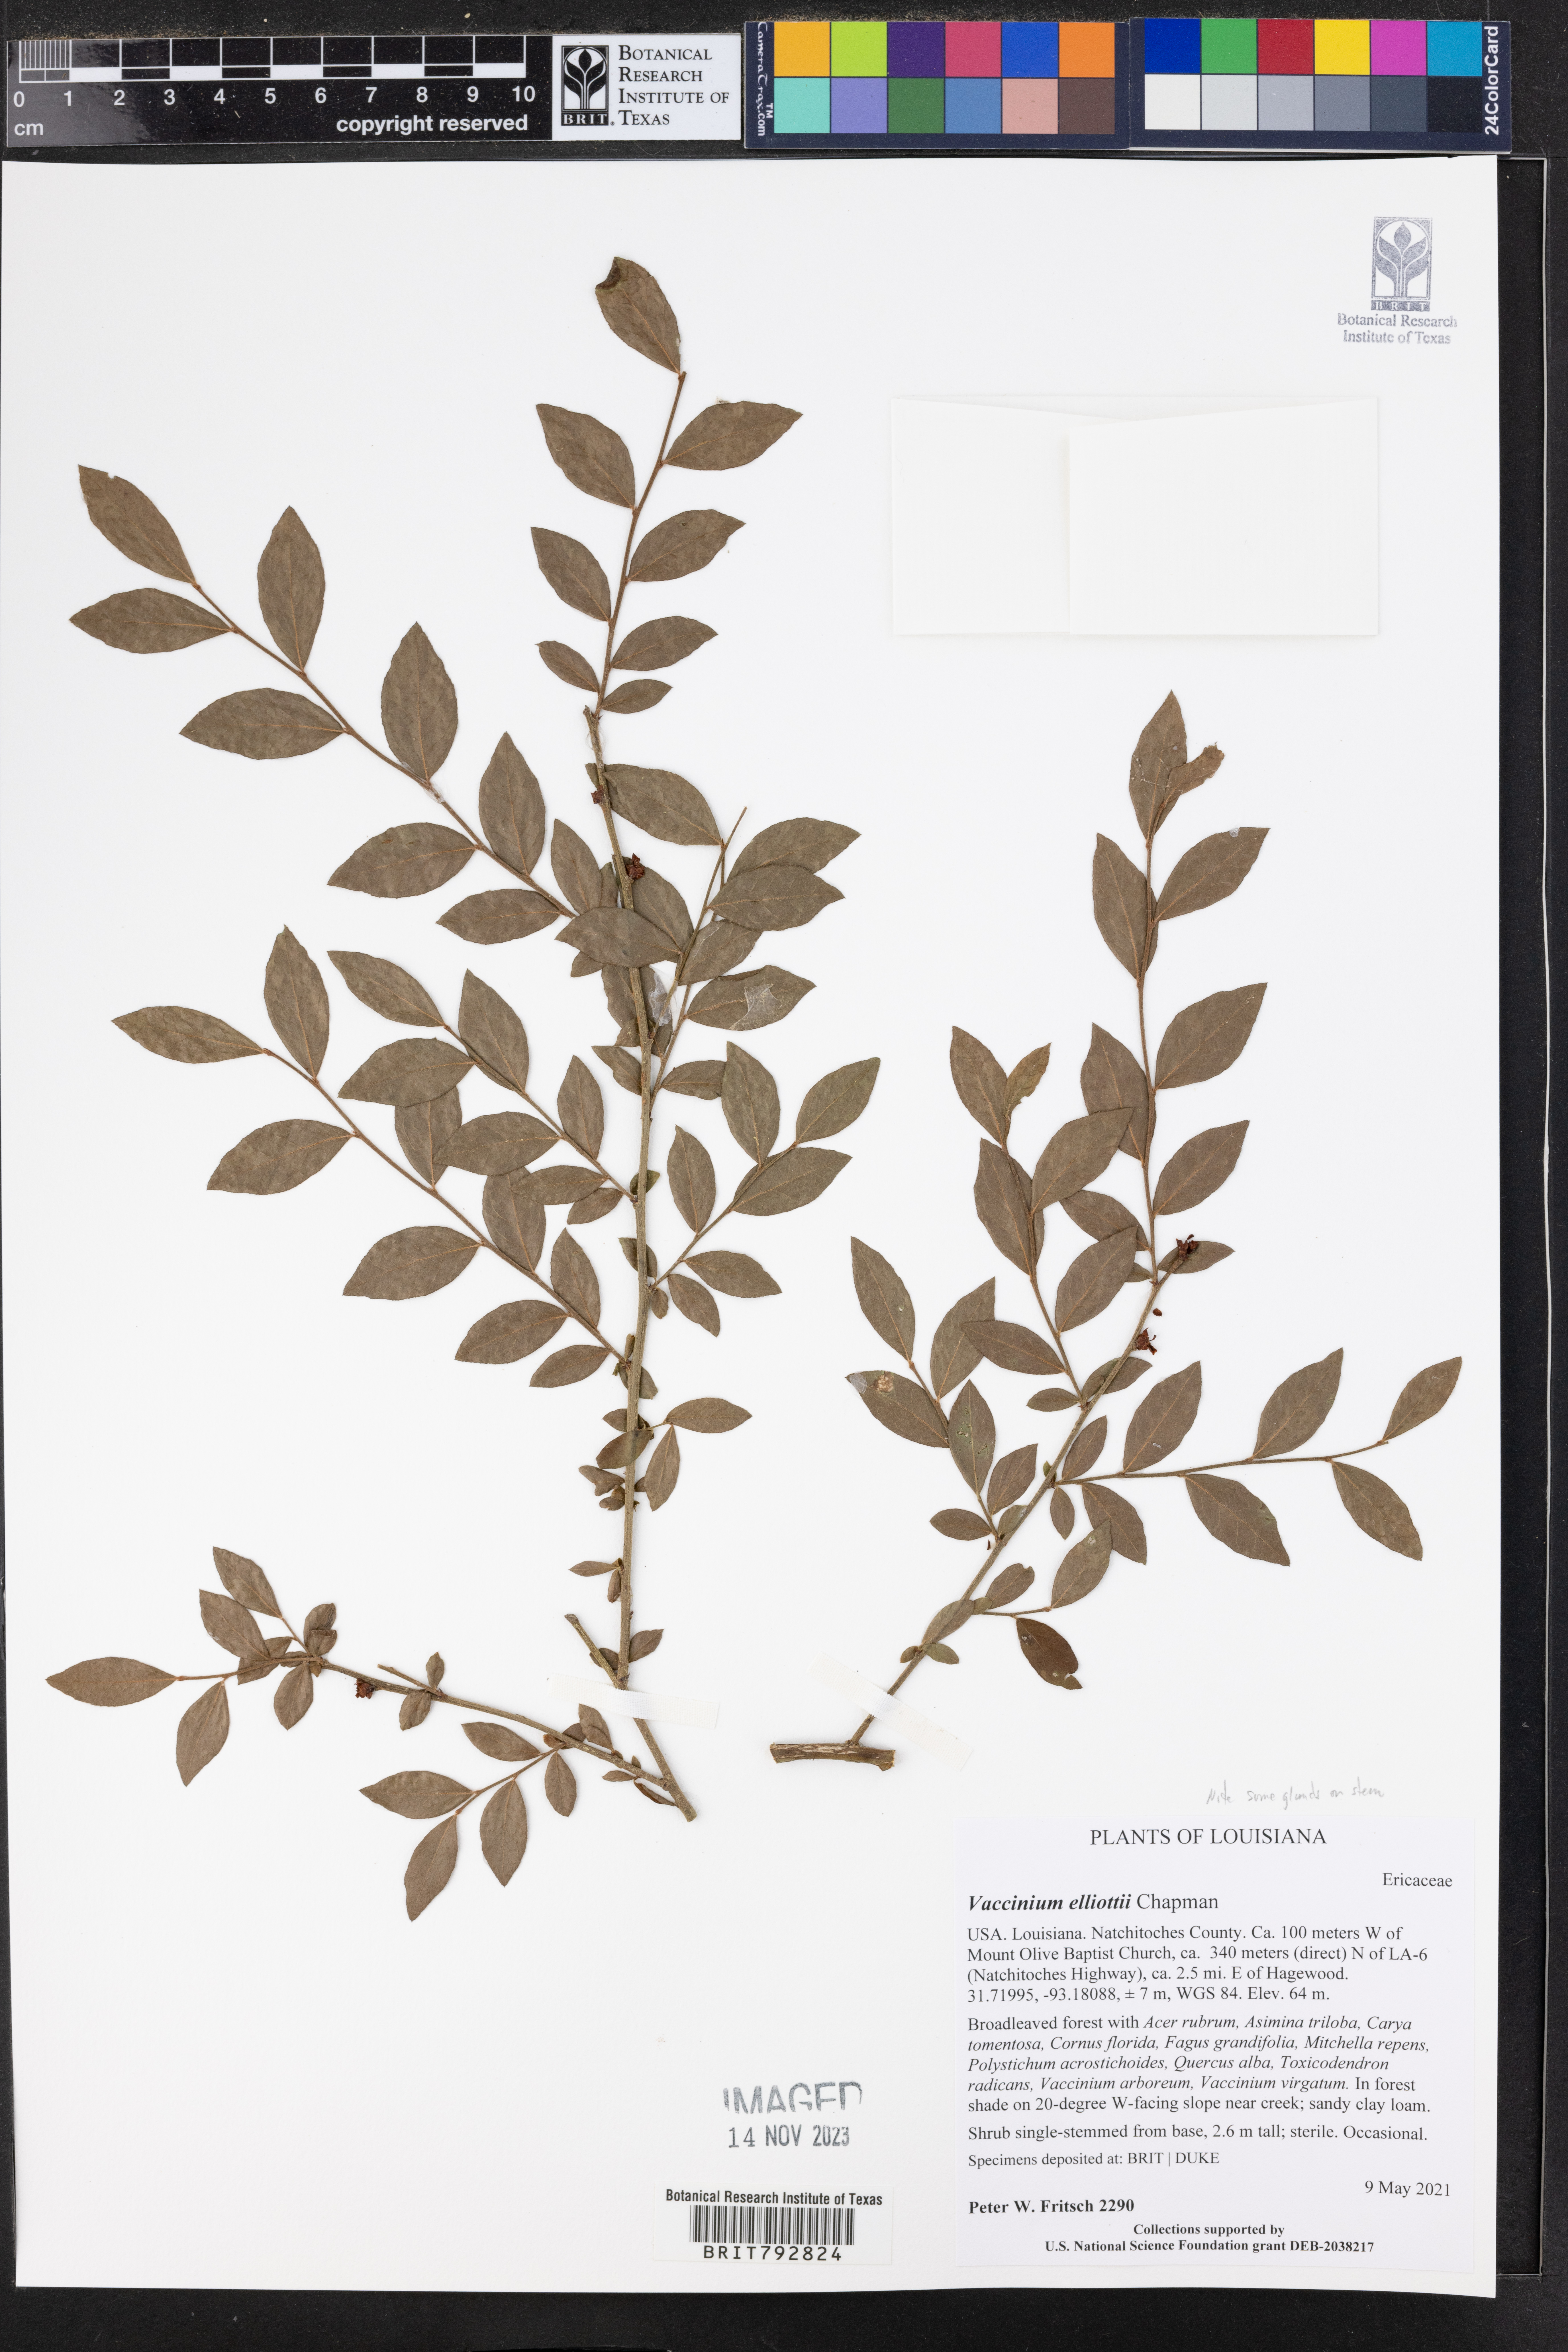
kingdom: Plantae
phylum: Tracheophyta
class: Magnoliopsida
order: Ericales
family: Ericaceae
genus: Vaccinium
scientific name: Vaccinium corymbosum
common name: Blueberry
